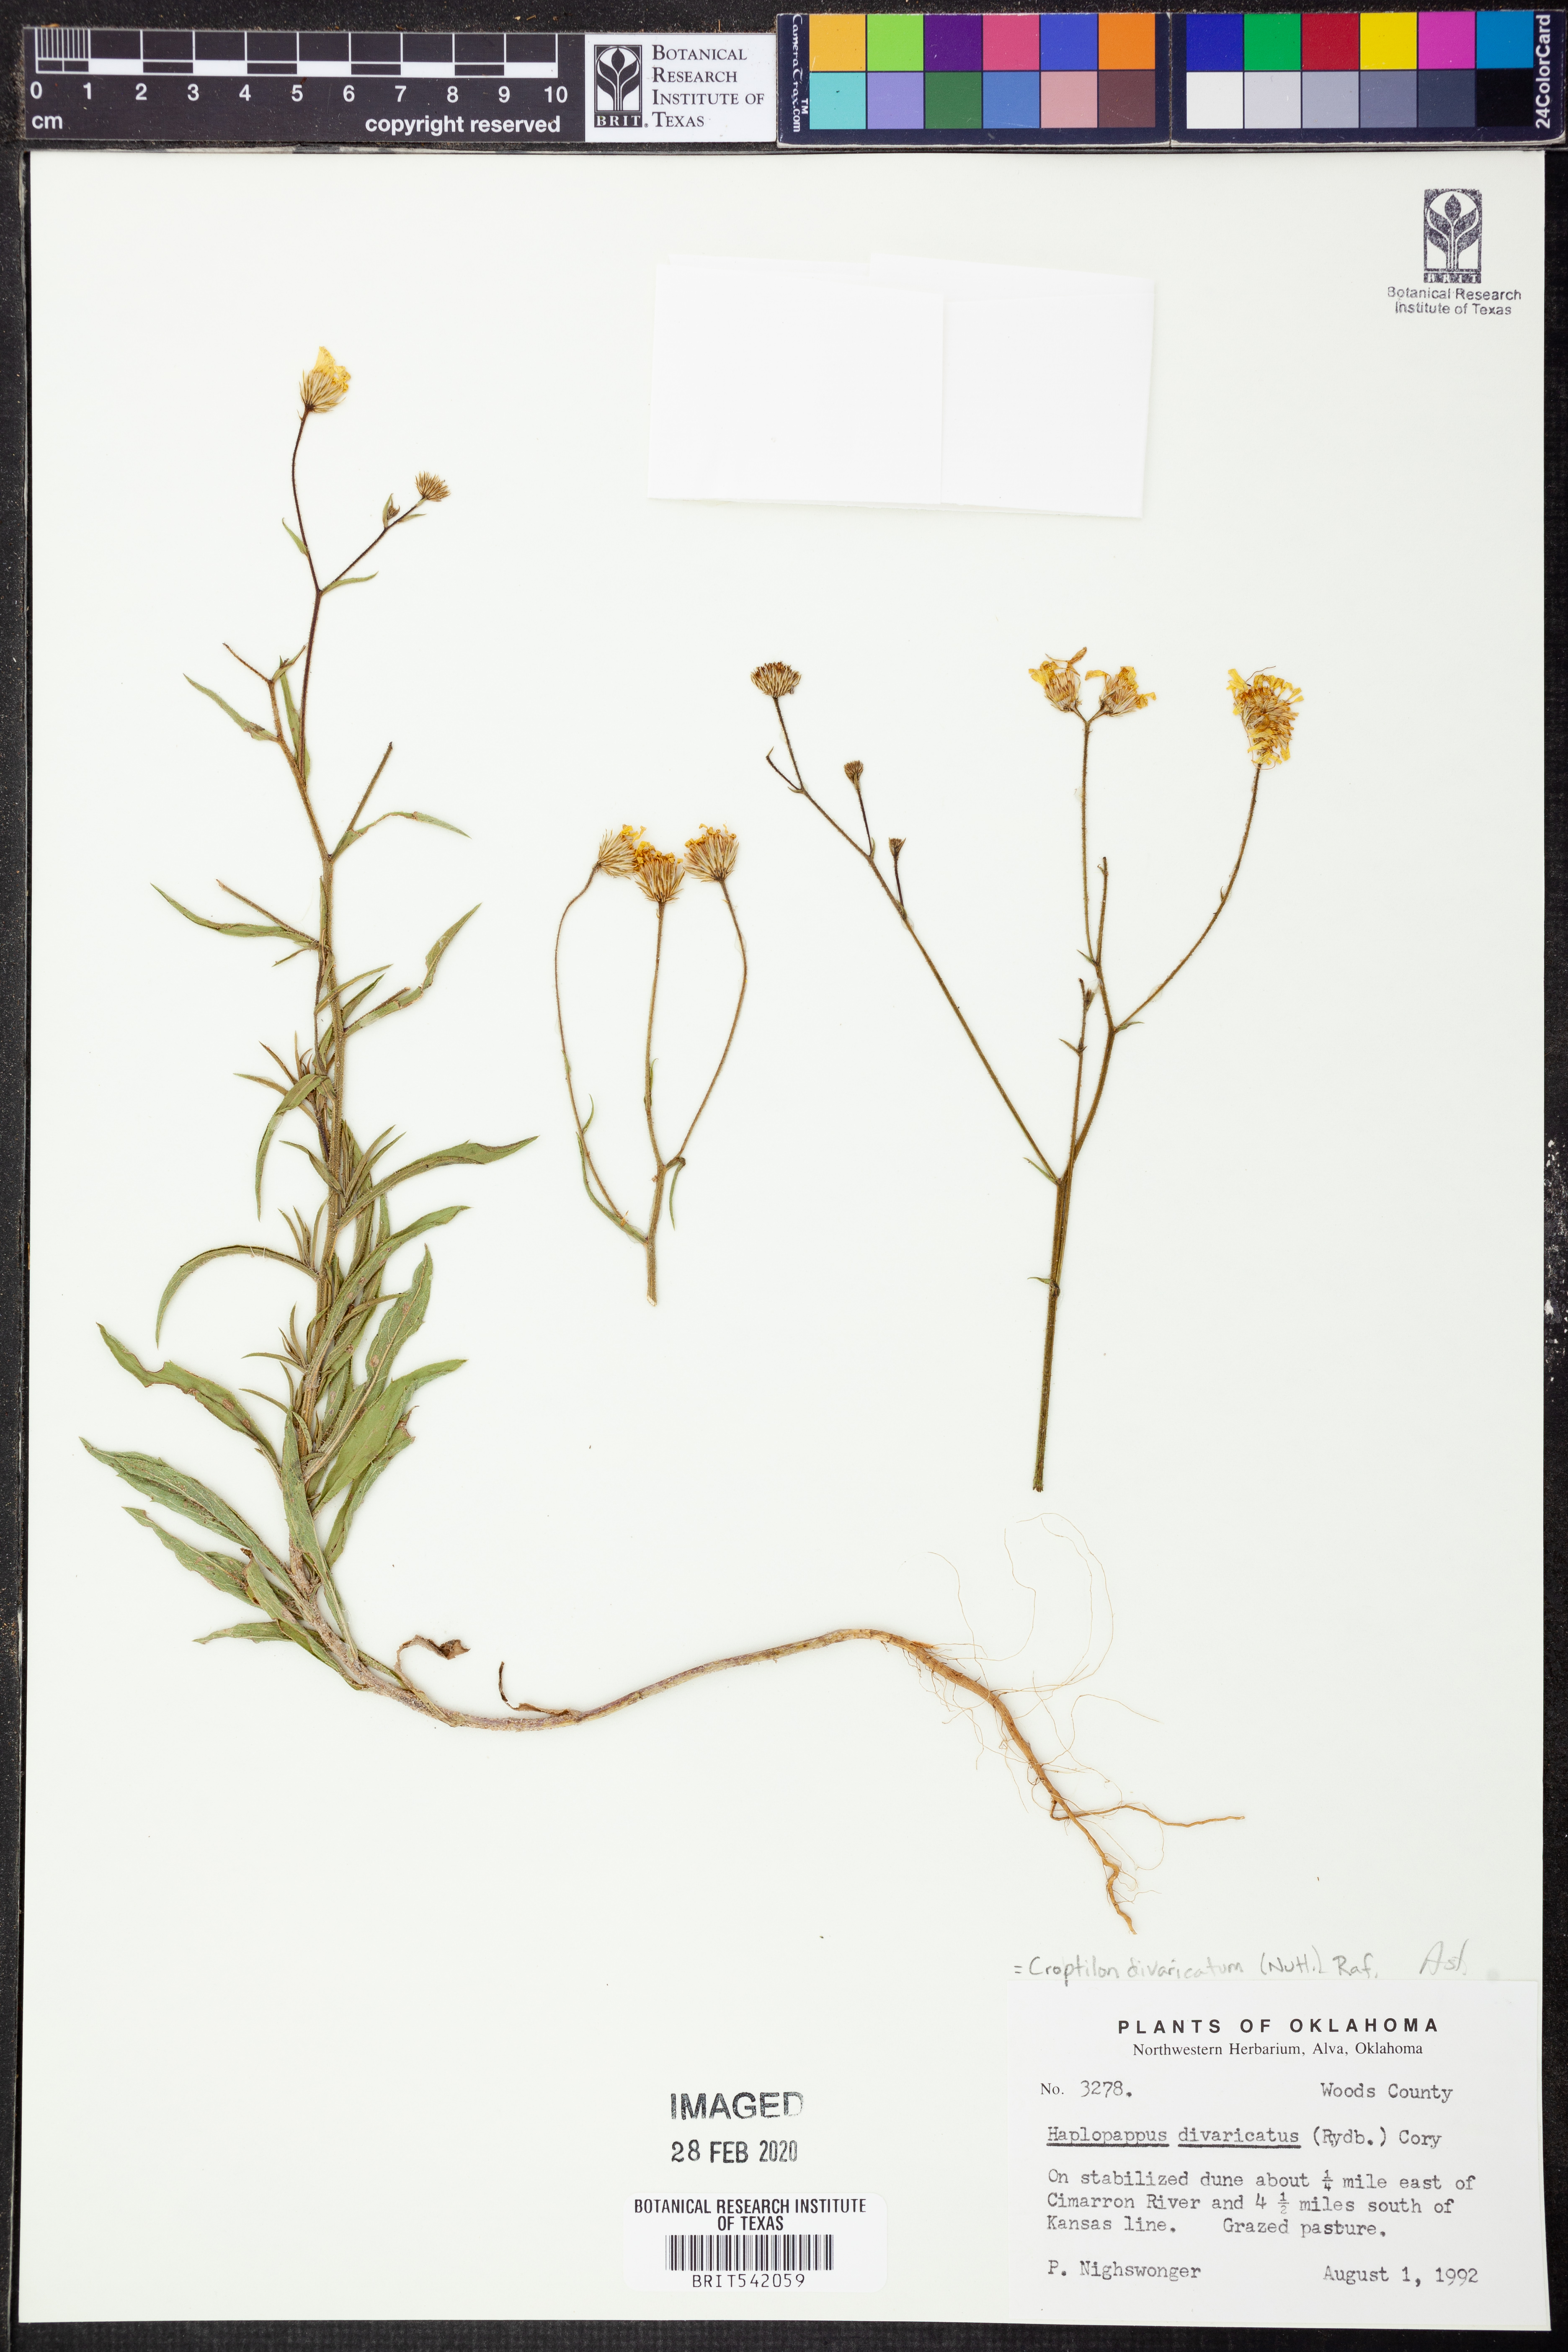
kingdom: Plantae
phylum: Tracheophyta
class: Magnoliopsida
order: Asterales
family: Asteraceae
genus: Croptilon
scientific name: Croptilon divaricatum
